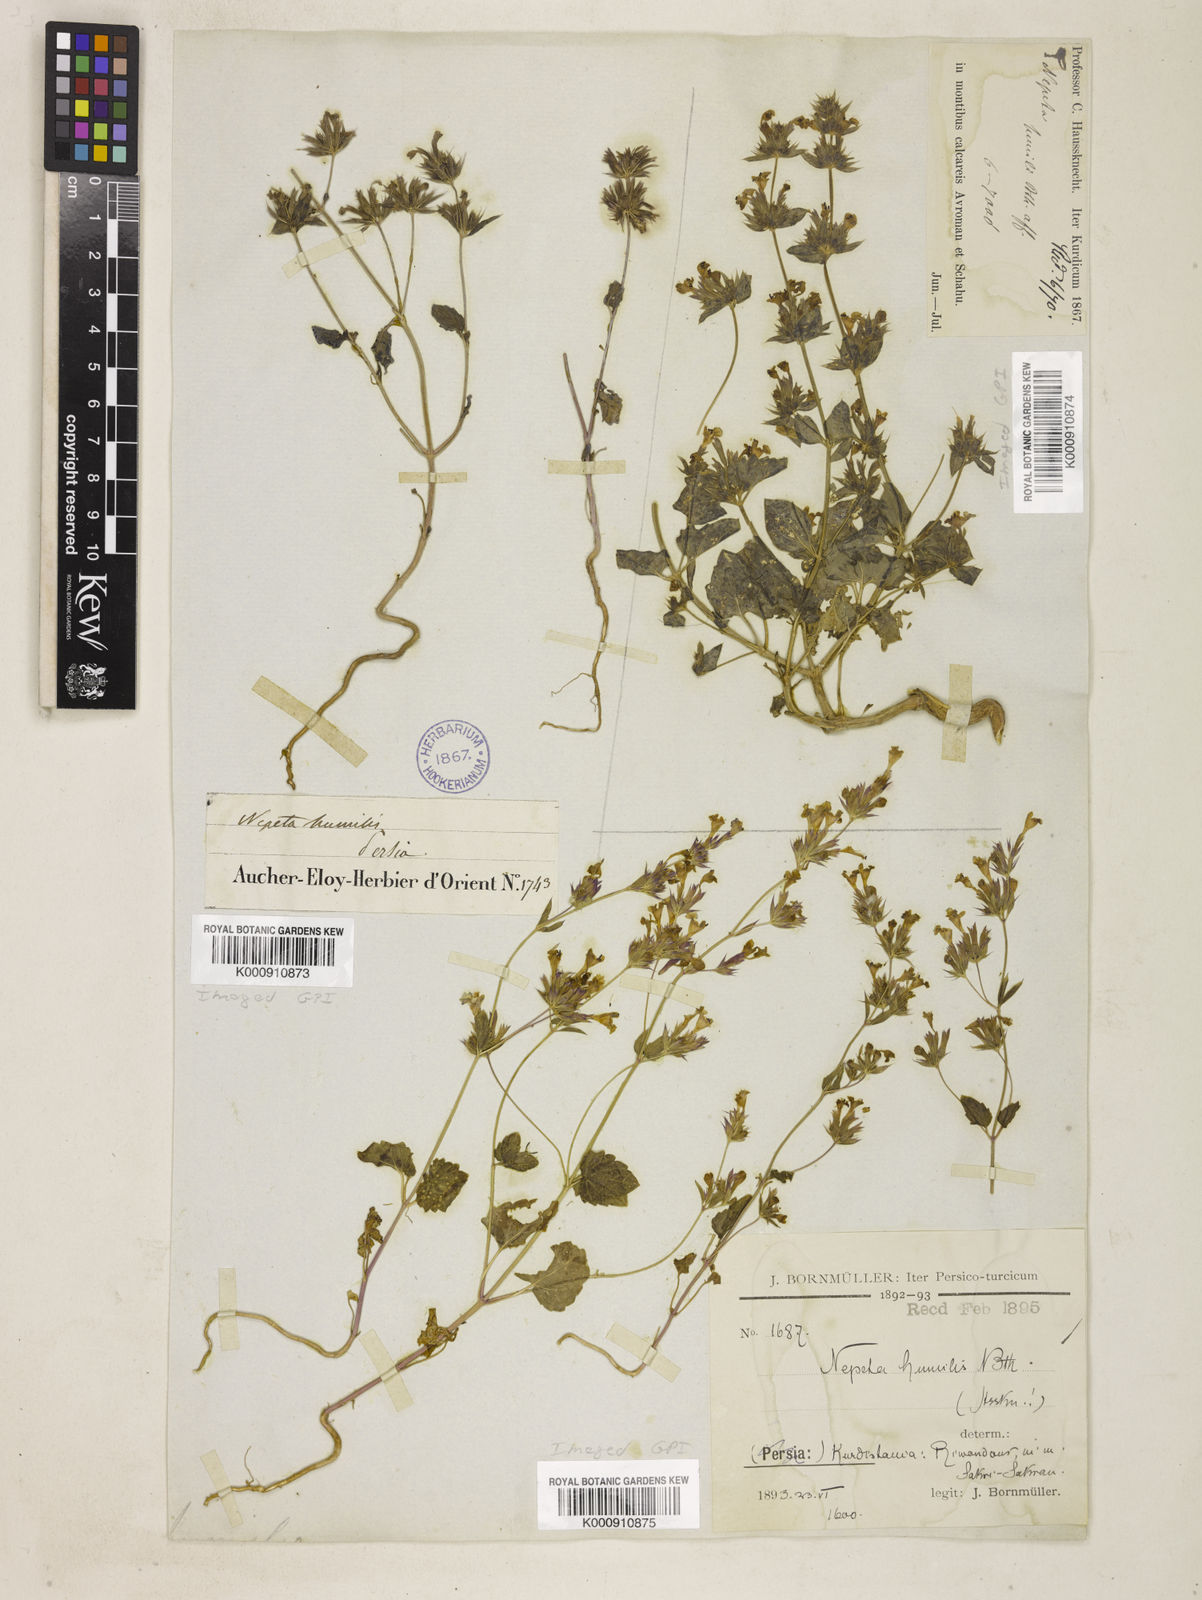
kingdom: Plantae
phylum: Tracheophyta
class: Magnoliopsida
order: Lamiales
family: Lamiaceae
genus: Nepeta
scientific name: Nepeta humilis
